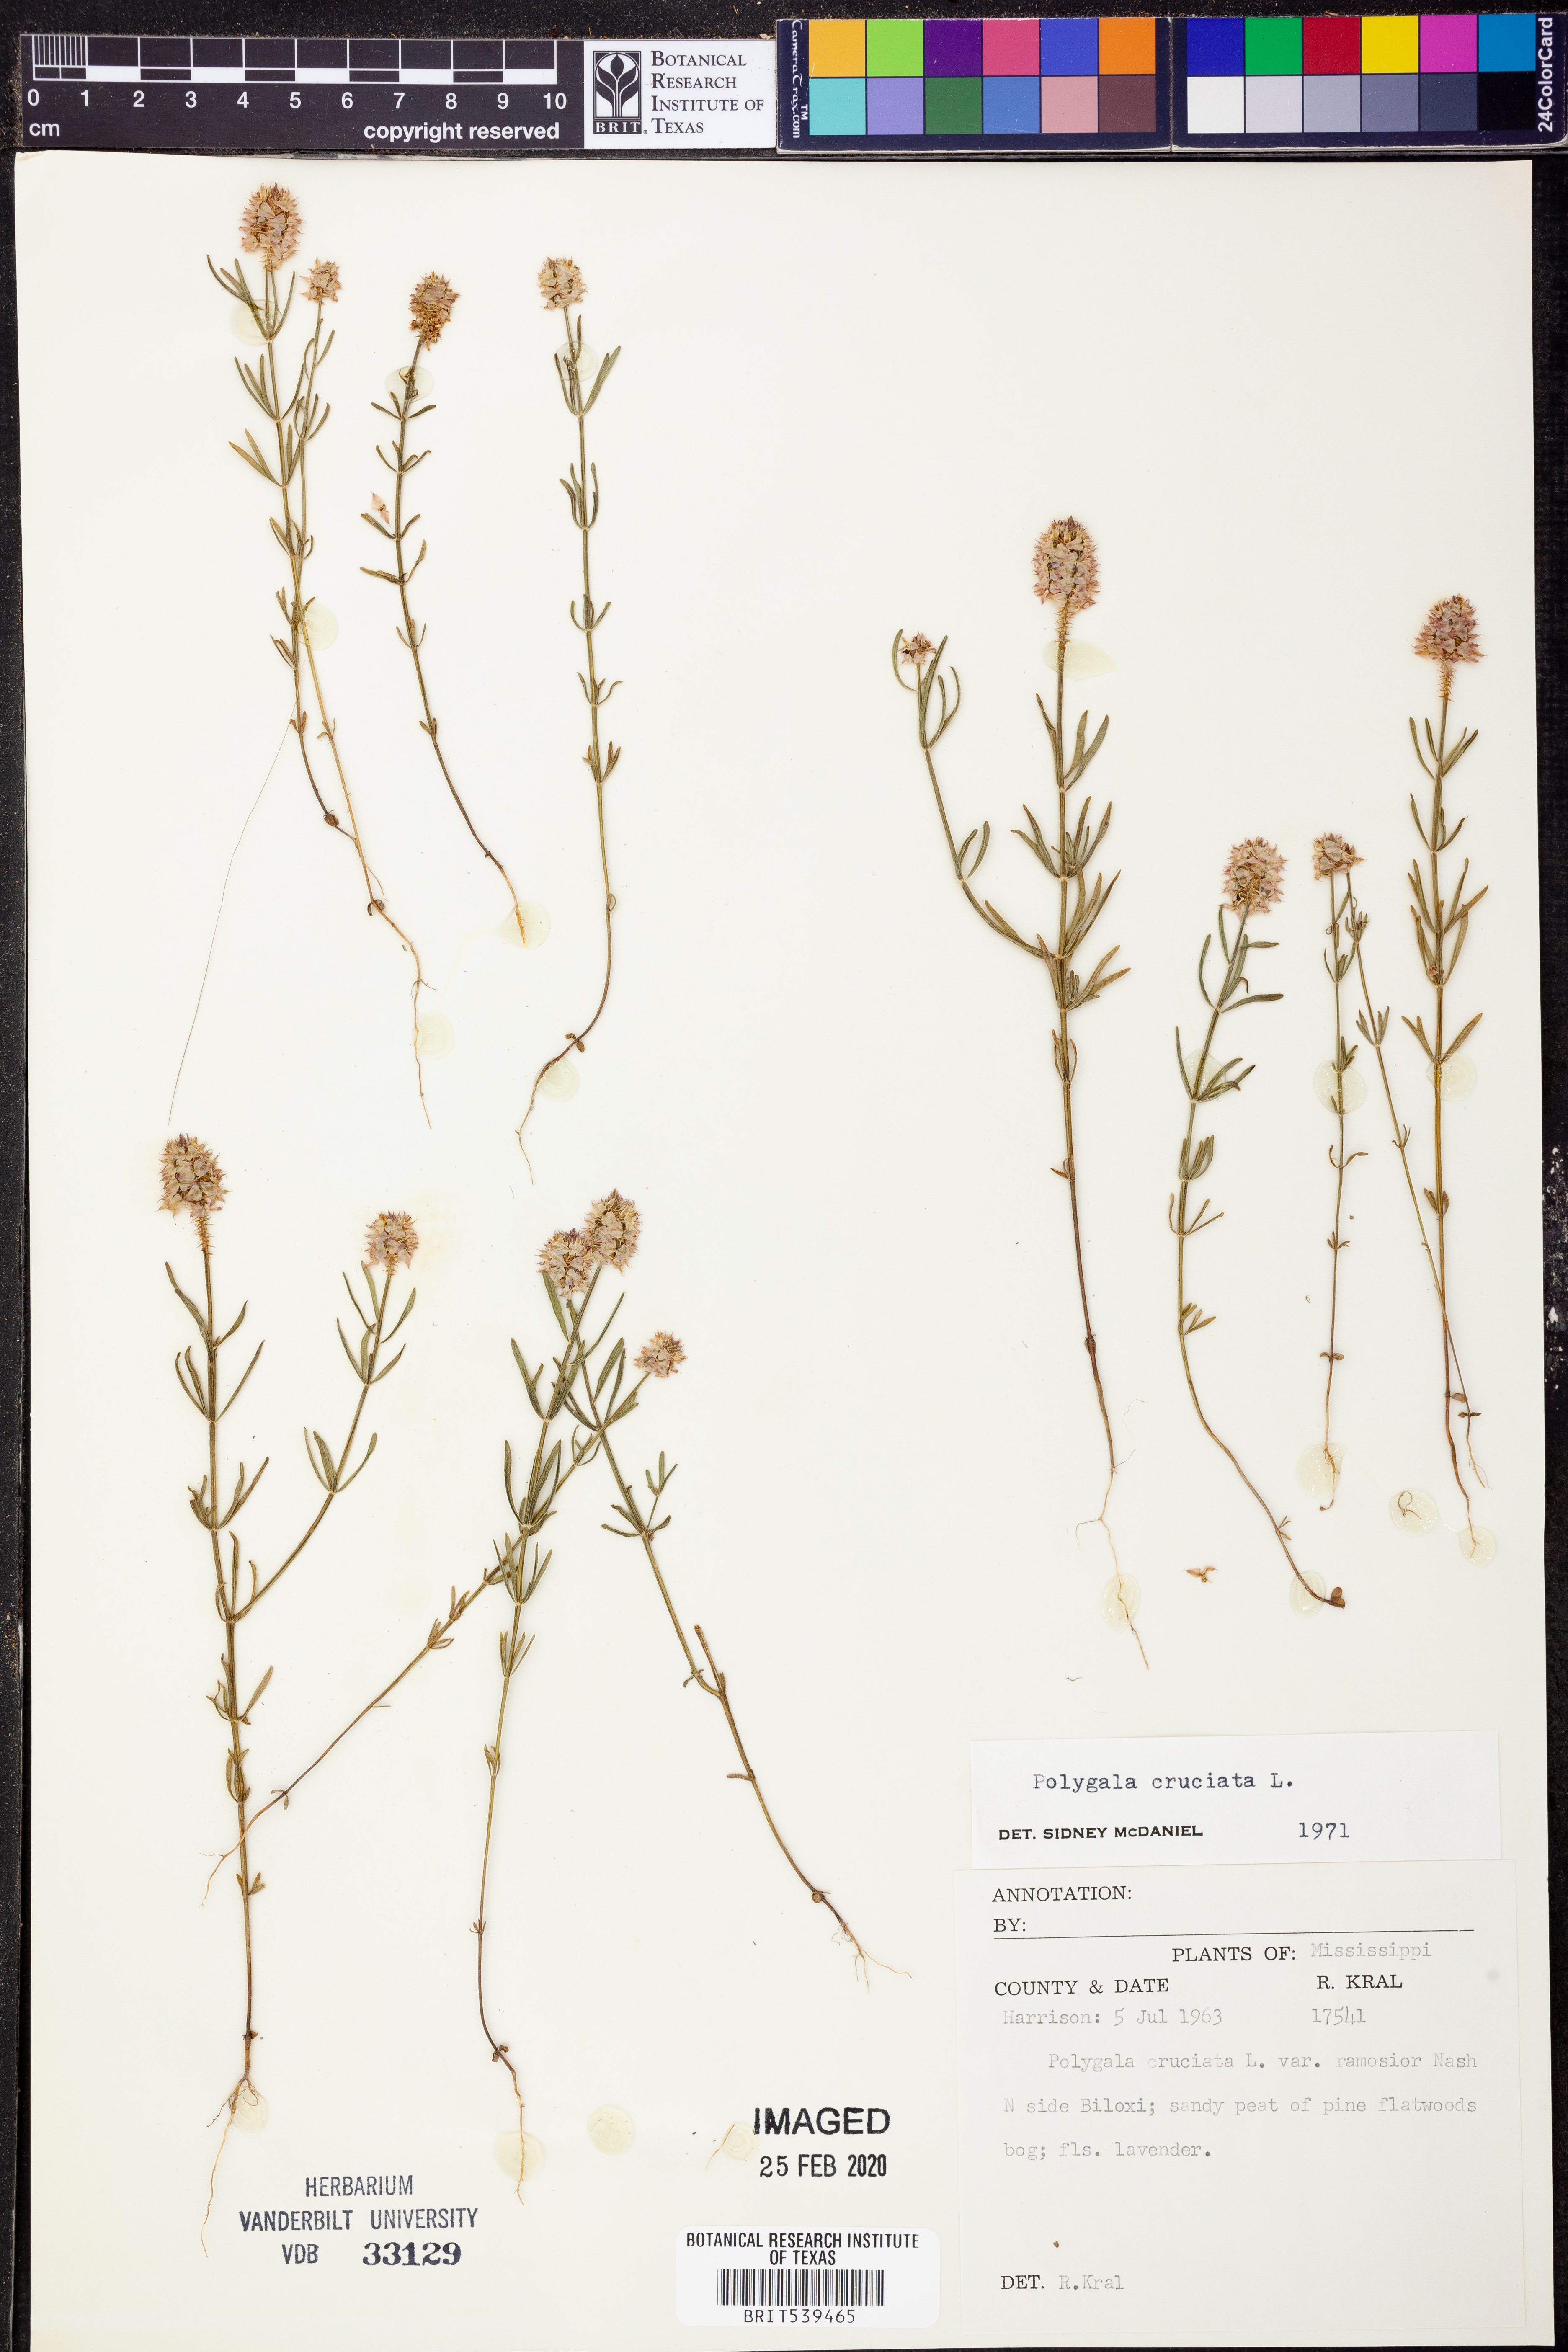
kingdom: Plantae
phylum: Tracheophyta
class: Magnoliopsida
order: Fabales
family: Polygalaceae
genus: Polygala
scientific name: Polygala cruciata
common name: Drumheads
